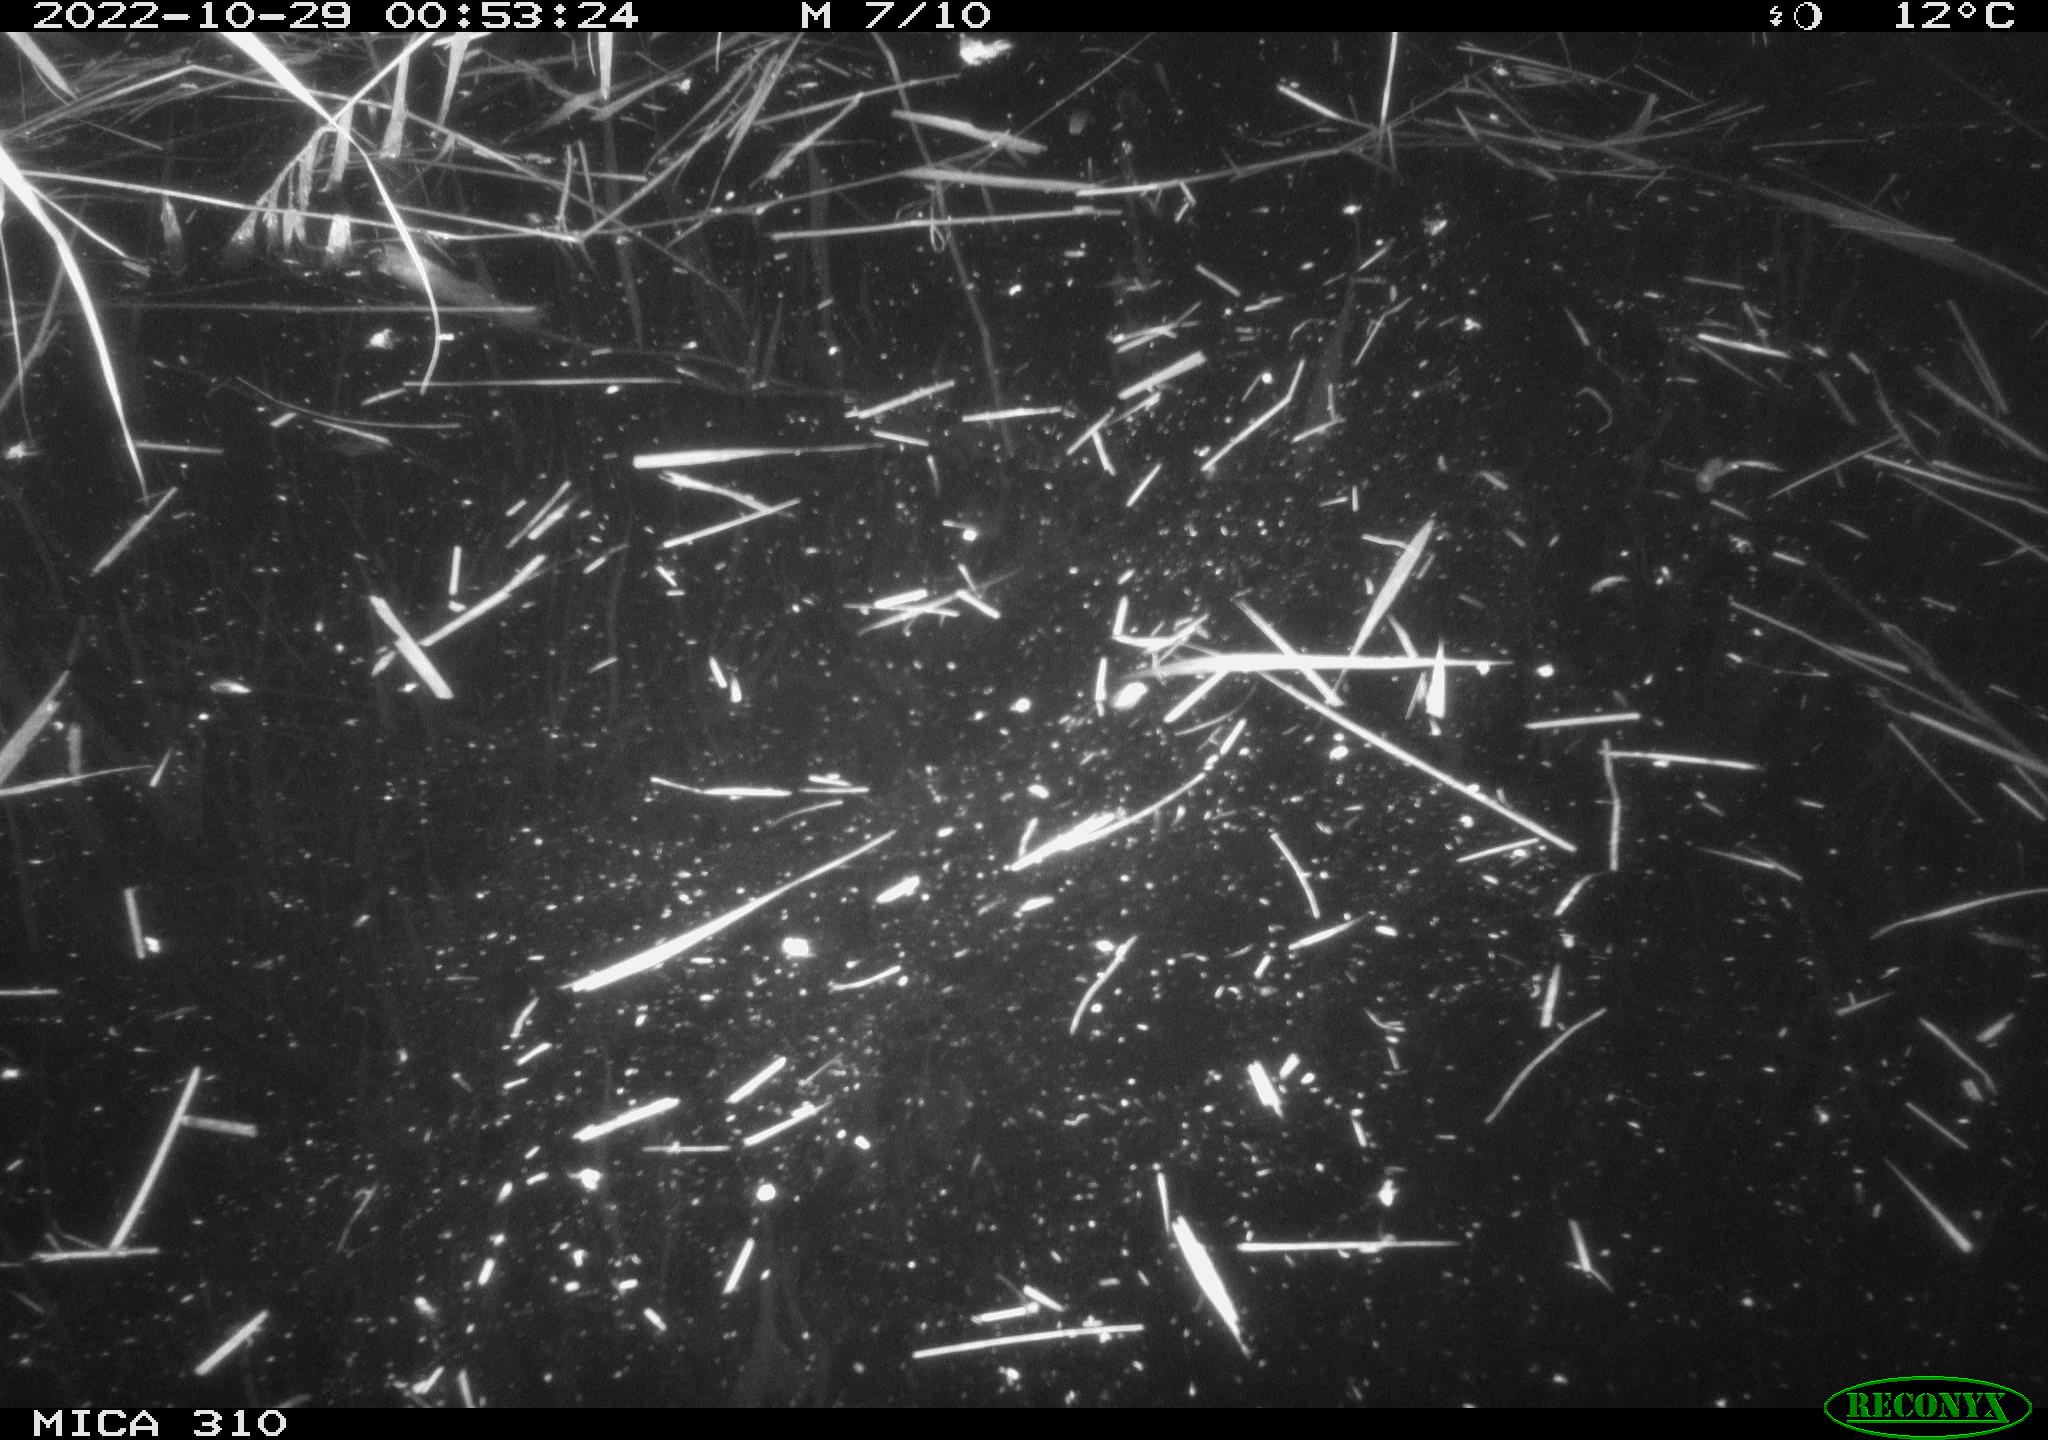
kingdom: Animalia
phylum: Chordata
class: Mammalia
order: Rodentia
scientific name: Rodentia
